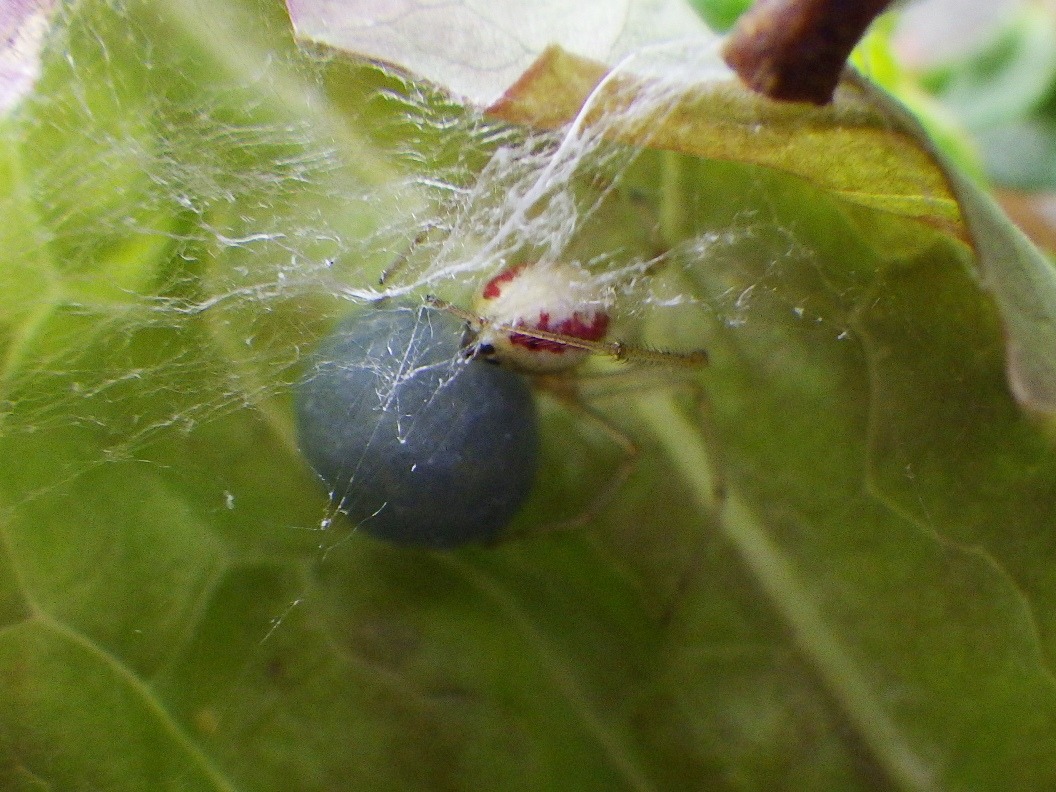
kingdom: Animalia
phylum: Arthropoda
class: Arachnida
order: Araneae
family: Theridiidae
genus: Enoplognatha
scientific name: Enoplognatha
